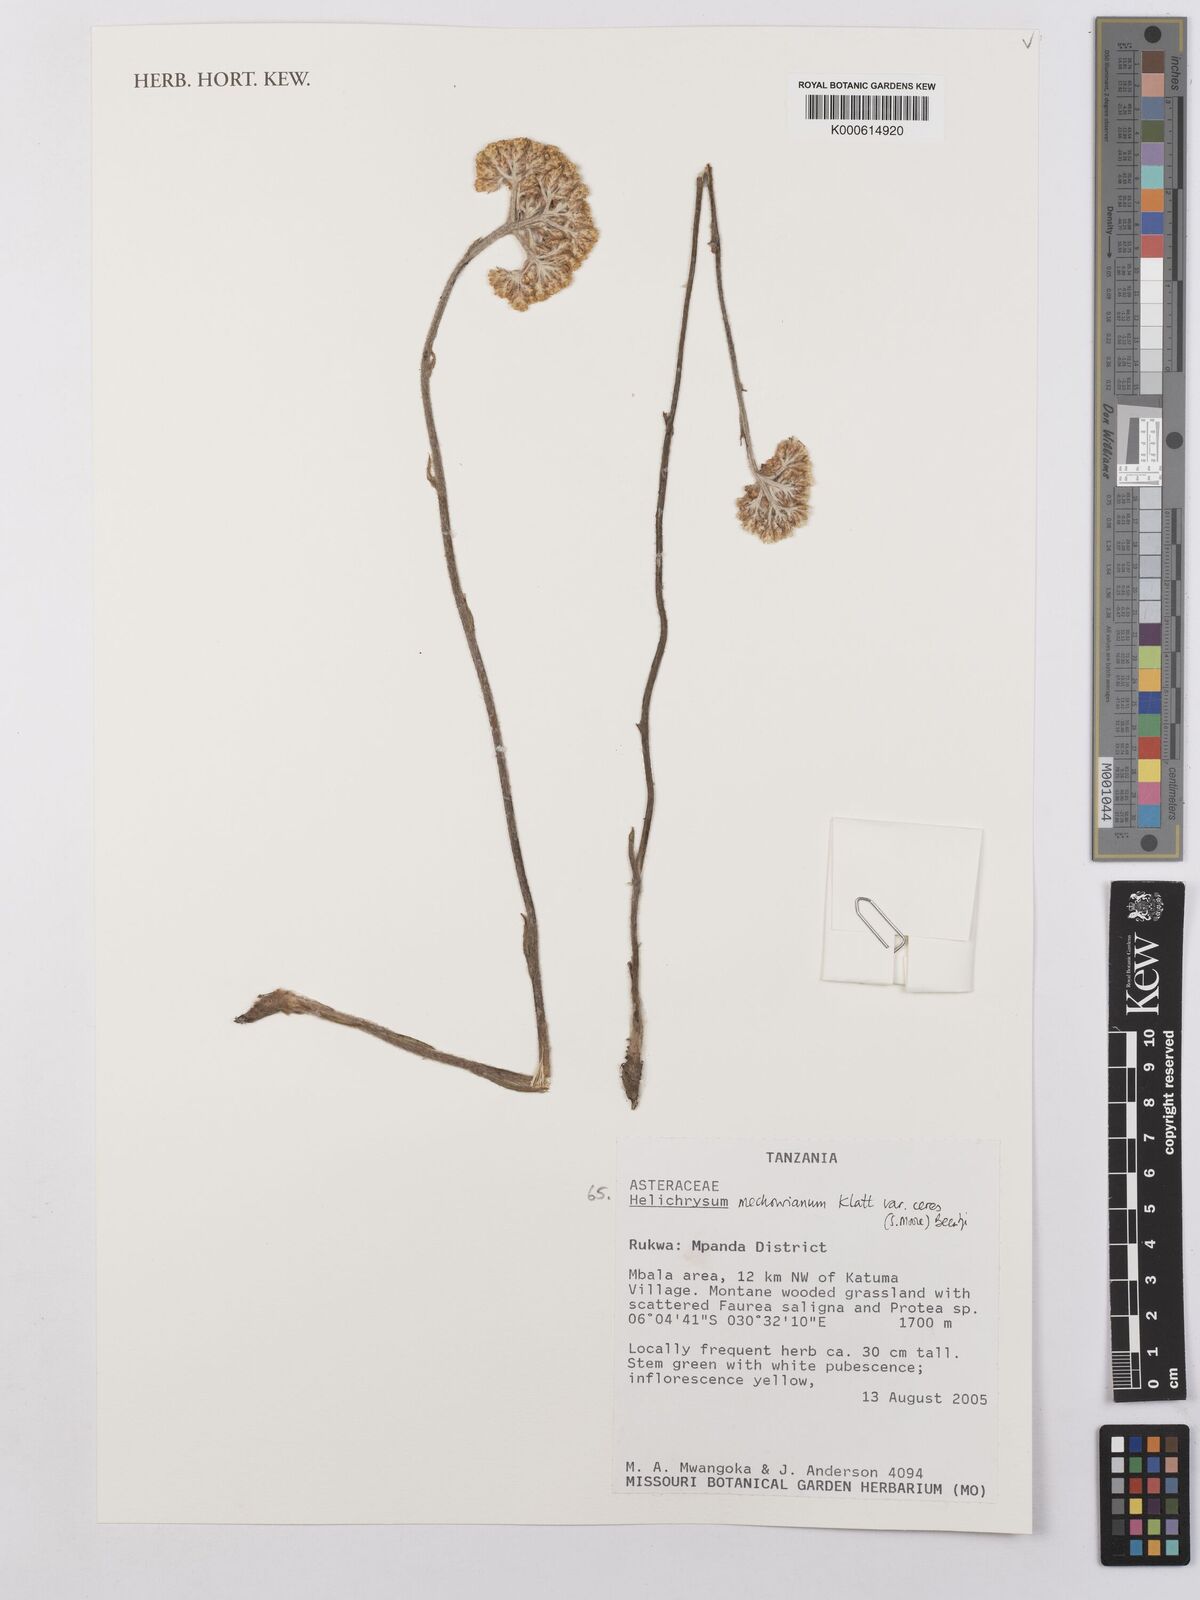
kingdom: Plantae
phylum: Tracheophyta
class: Magnoliopsida
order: Asterales
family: Asteraceae
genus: Helichrysum
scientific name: Helichrysum mechowianum
